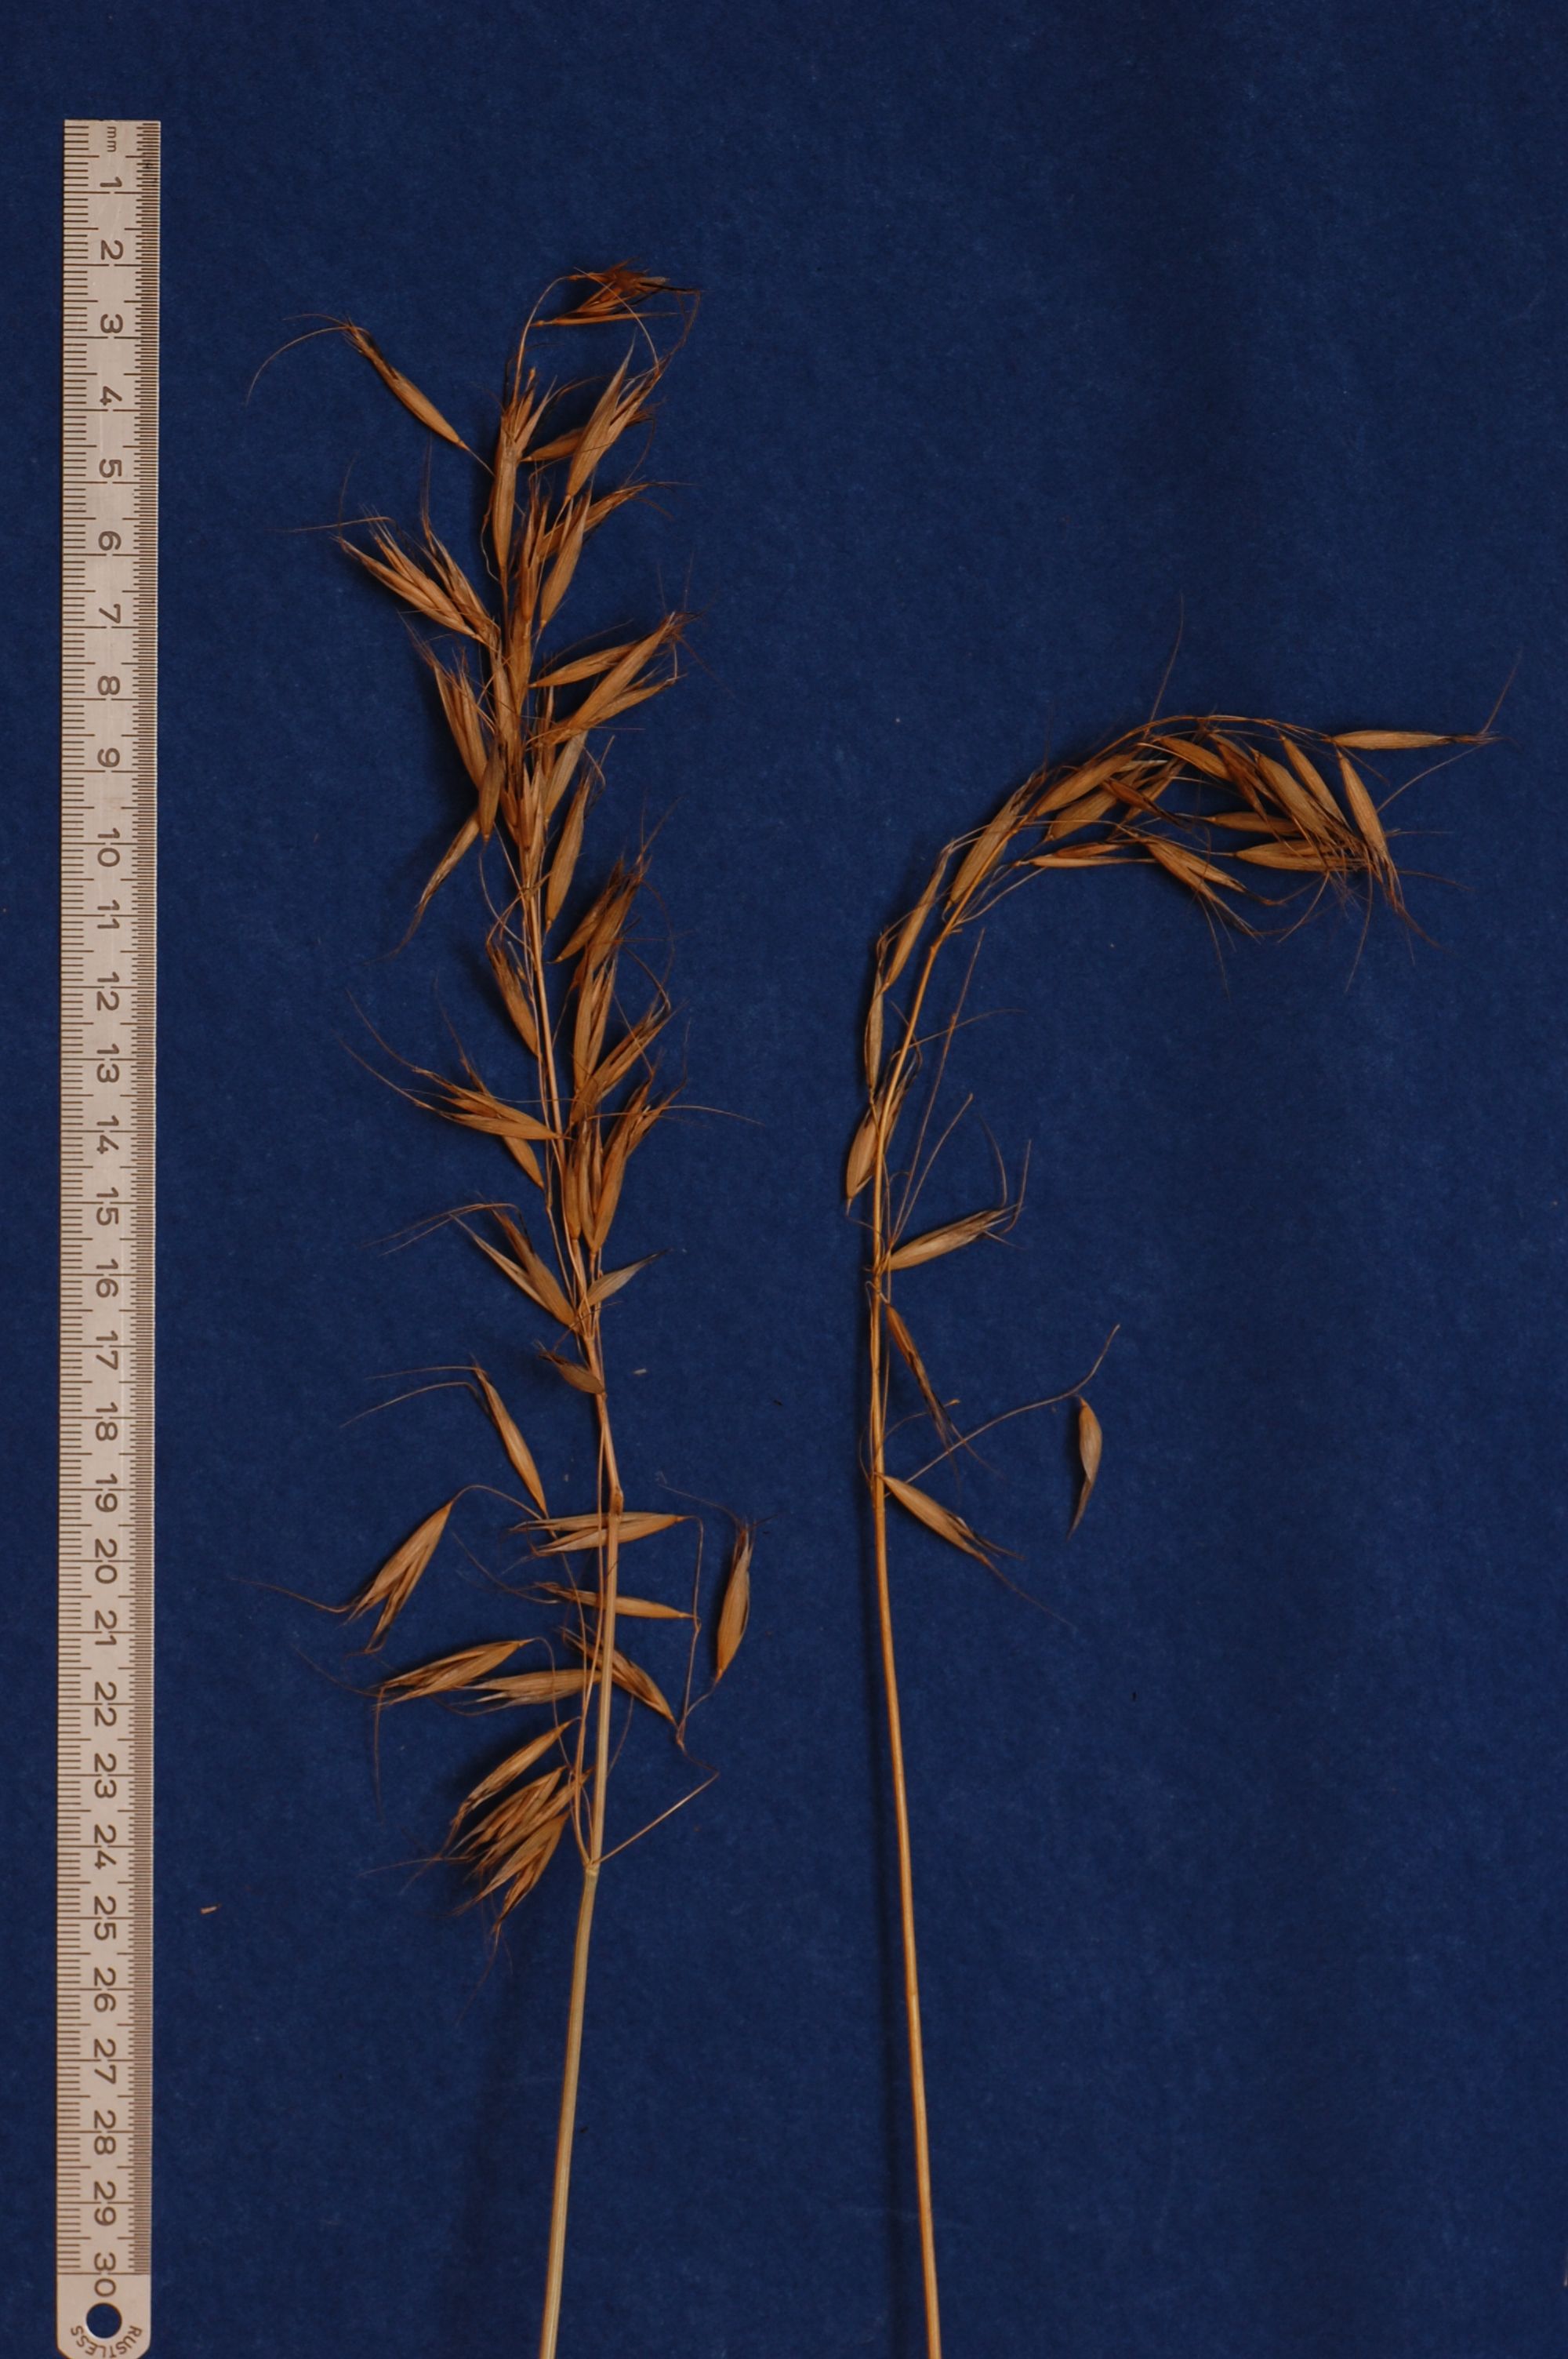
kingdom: Plantae
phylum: Tracheophyta
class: Liliopsida
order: Poales
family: Poaceae
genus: Avena
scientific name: Avena strigosa
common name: Bristle oat
